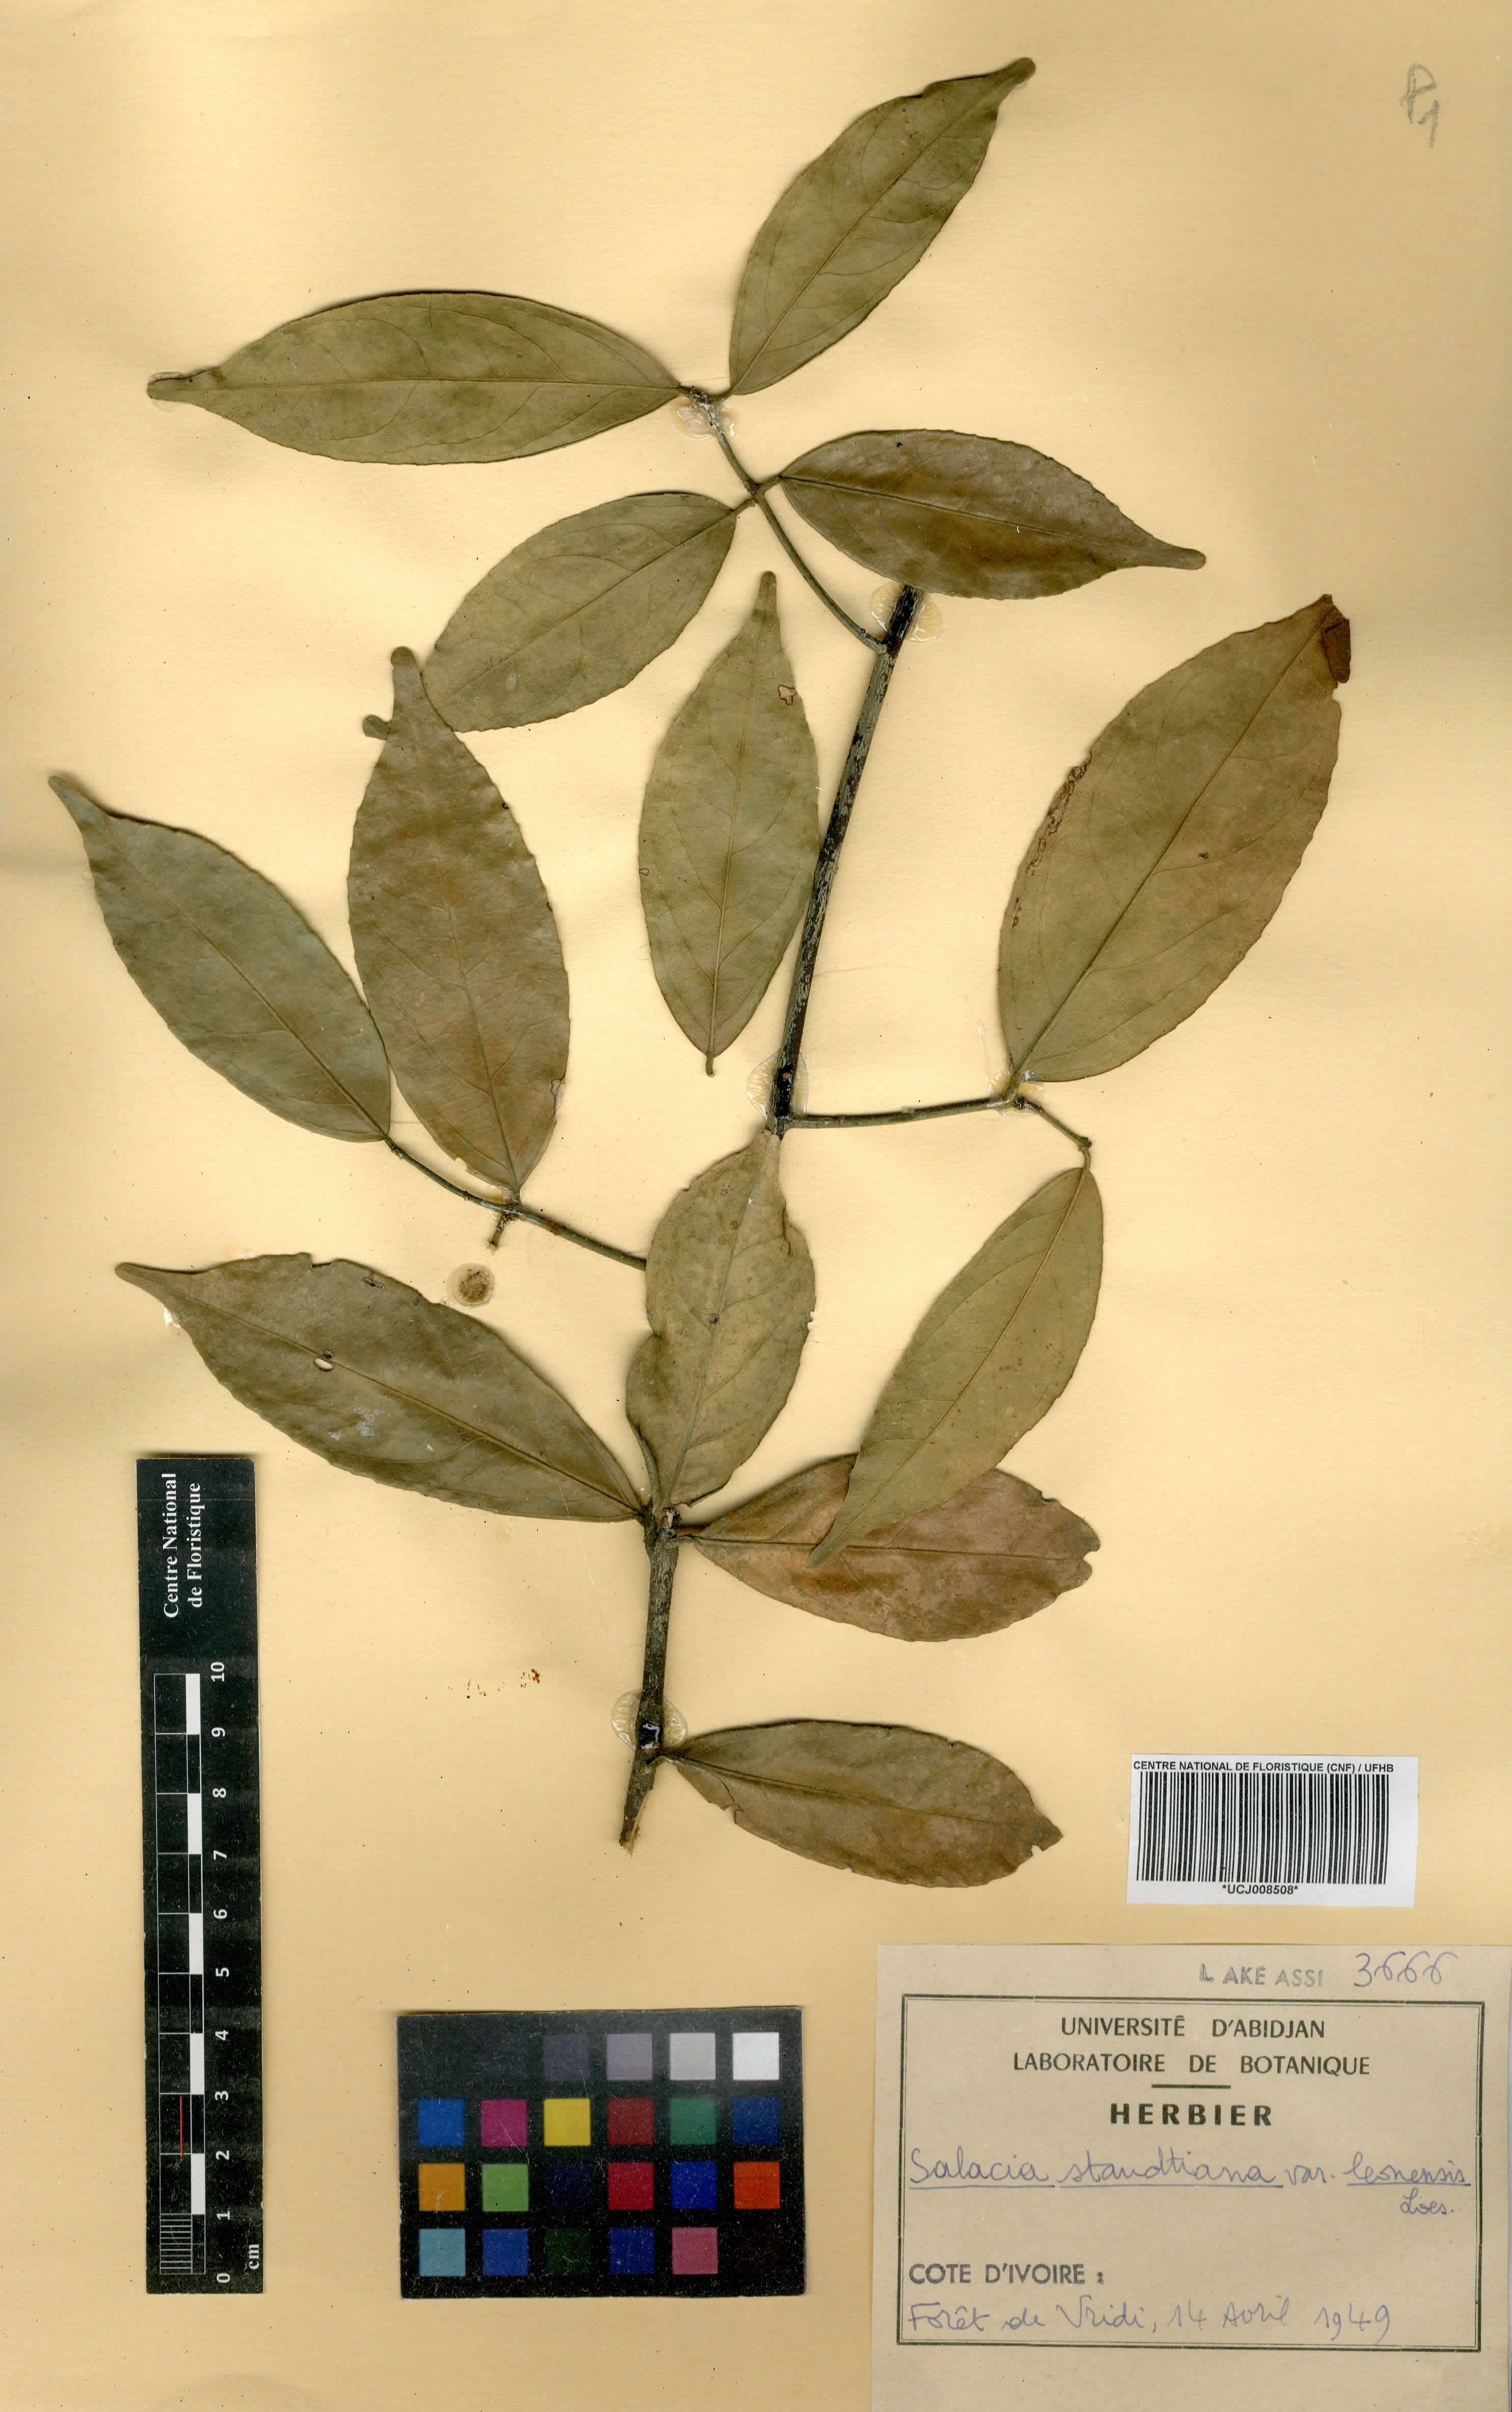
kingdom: Plantae
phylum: Tracheophyta
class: Magnoliopsida
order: Celastrales
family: Celastraceae
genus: Salacia
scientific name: Salacia caillei
